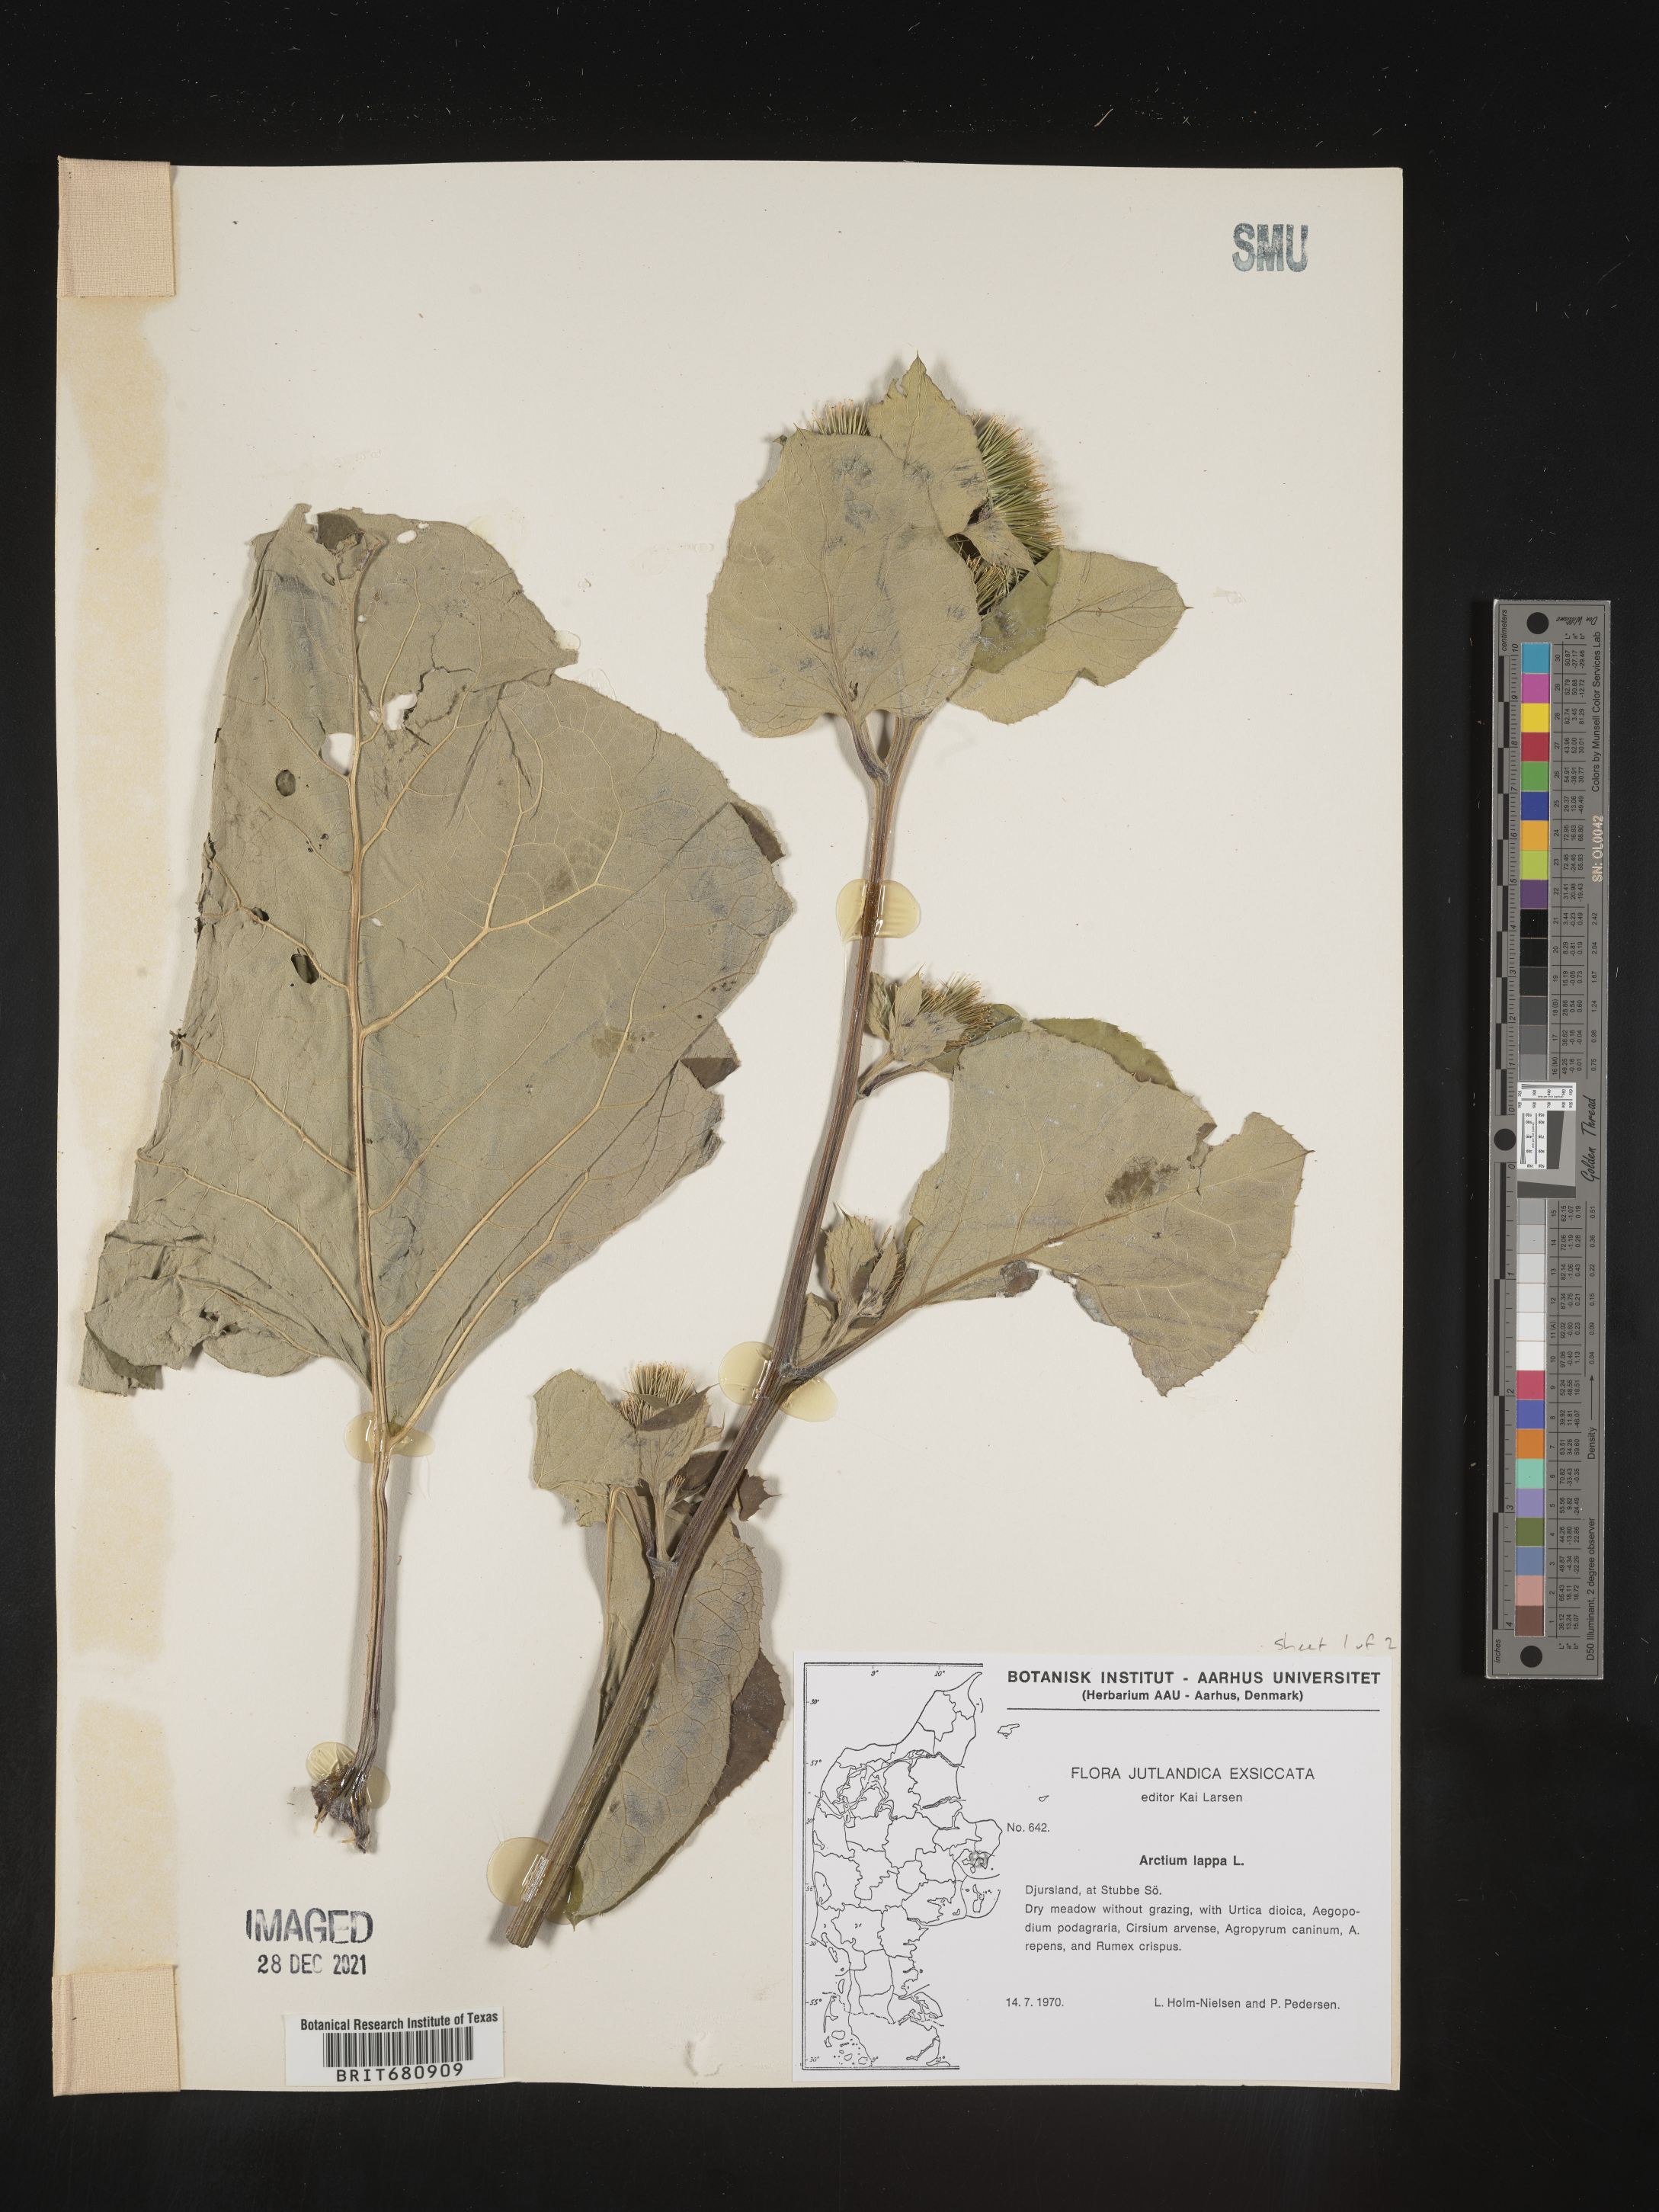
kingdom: Plantae
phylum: Tracheophyta
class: Magnoliopsida
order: Asterales
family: Asteraceae
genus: Arctium
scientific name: Arctium lappa
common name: Greater burdock
